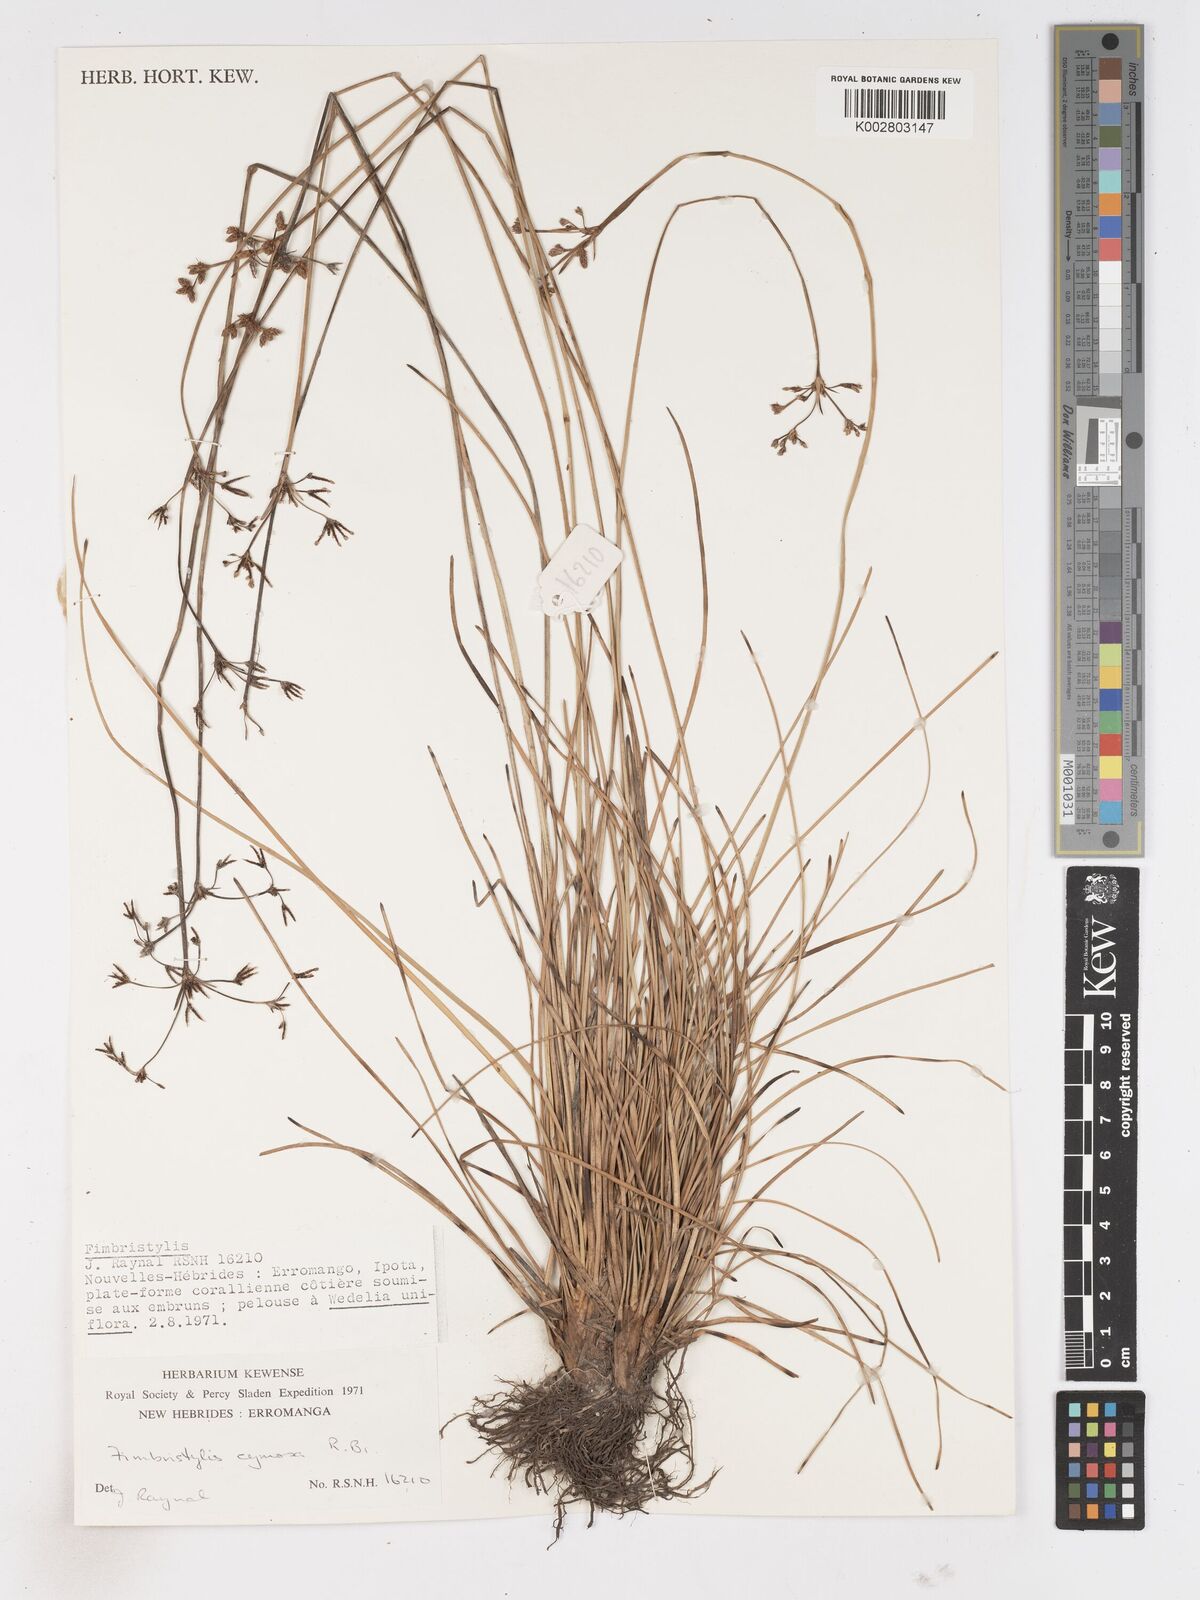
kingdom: Plantae
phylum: Tracheophyta
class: Liliopsida
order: Poales
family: Cyperaceae
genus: Fimbristylis
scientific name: Fimbristylis cymosa
